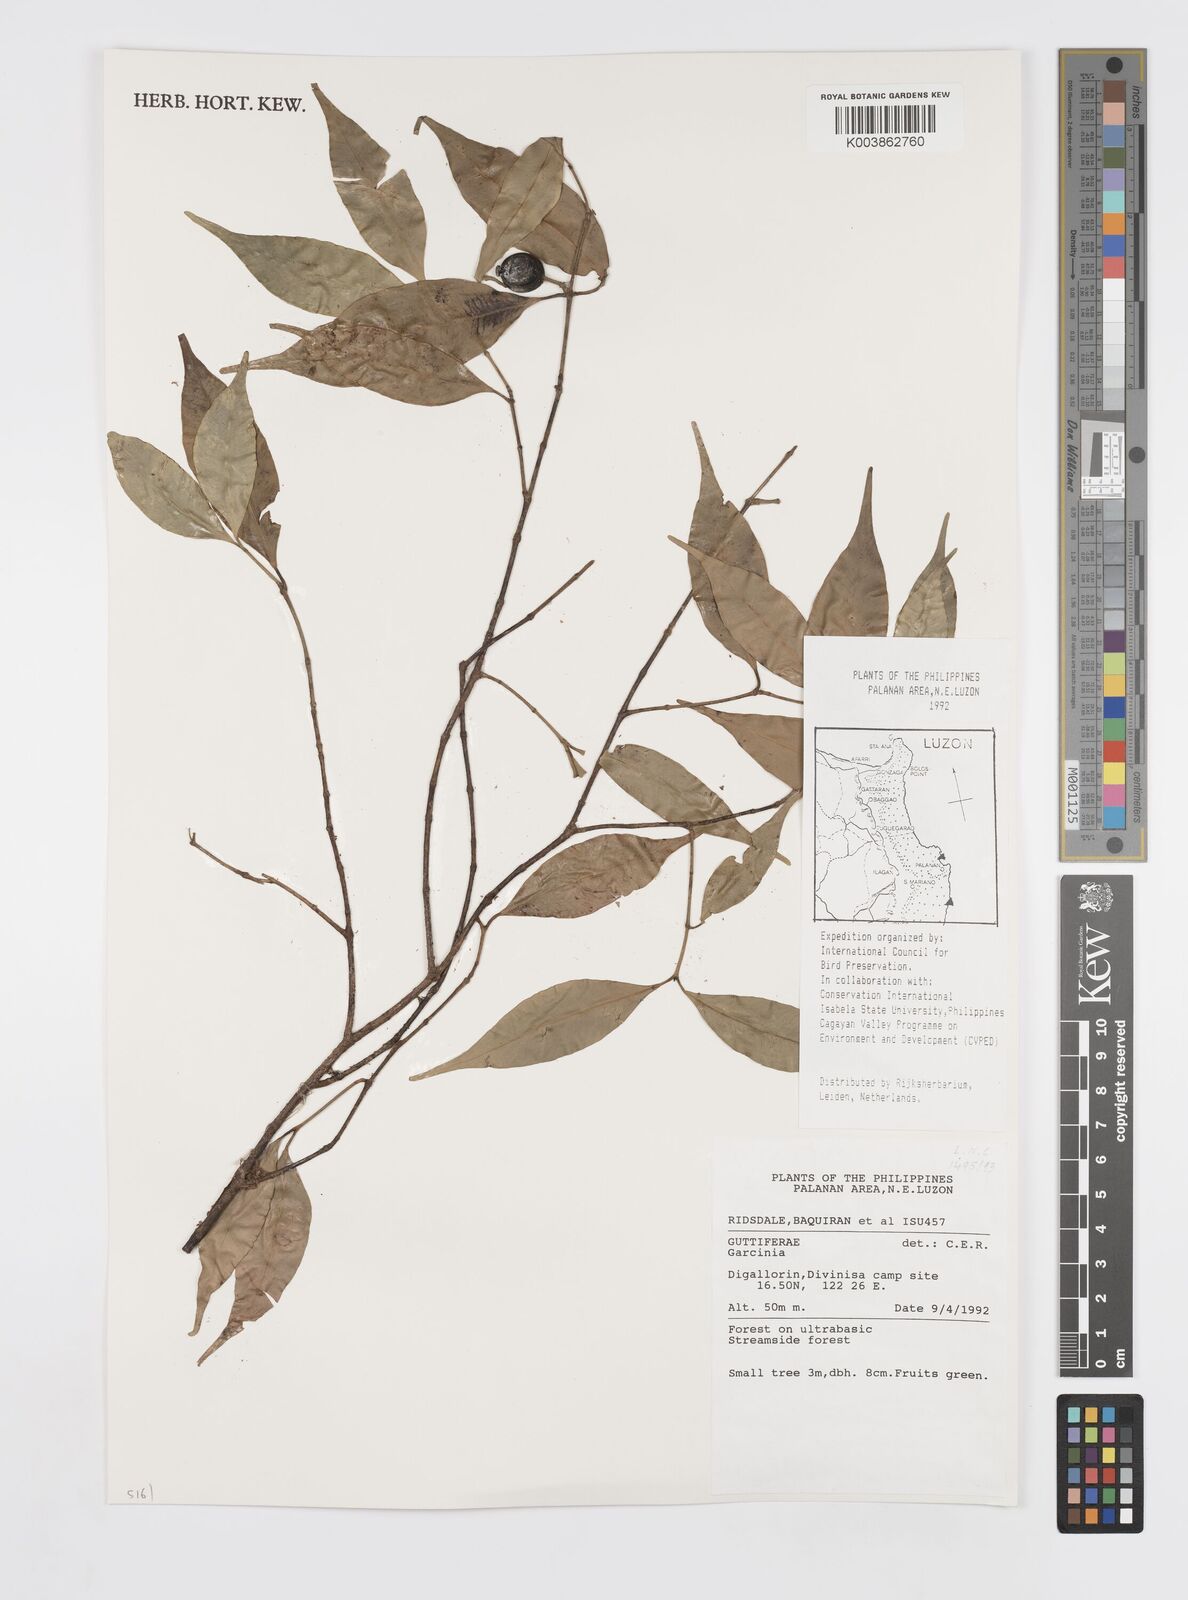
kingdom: Plantae
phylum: Tracheophyta
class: Magnoliopsida
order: Malpighiales
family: Clusiaceae
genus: Garcinia
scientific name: Garcinia
